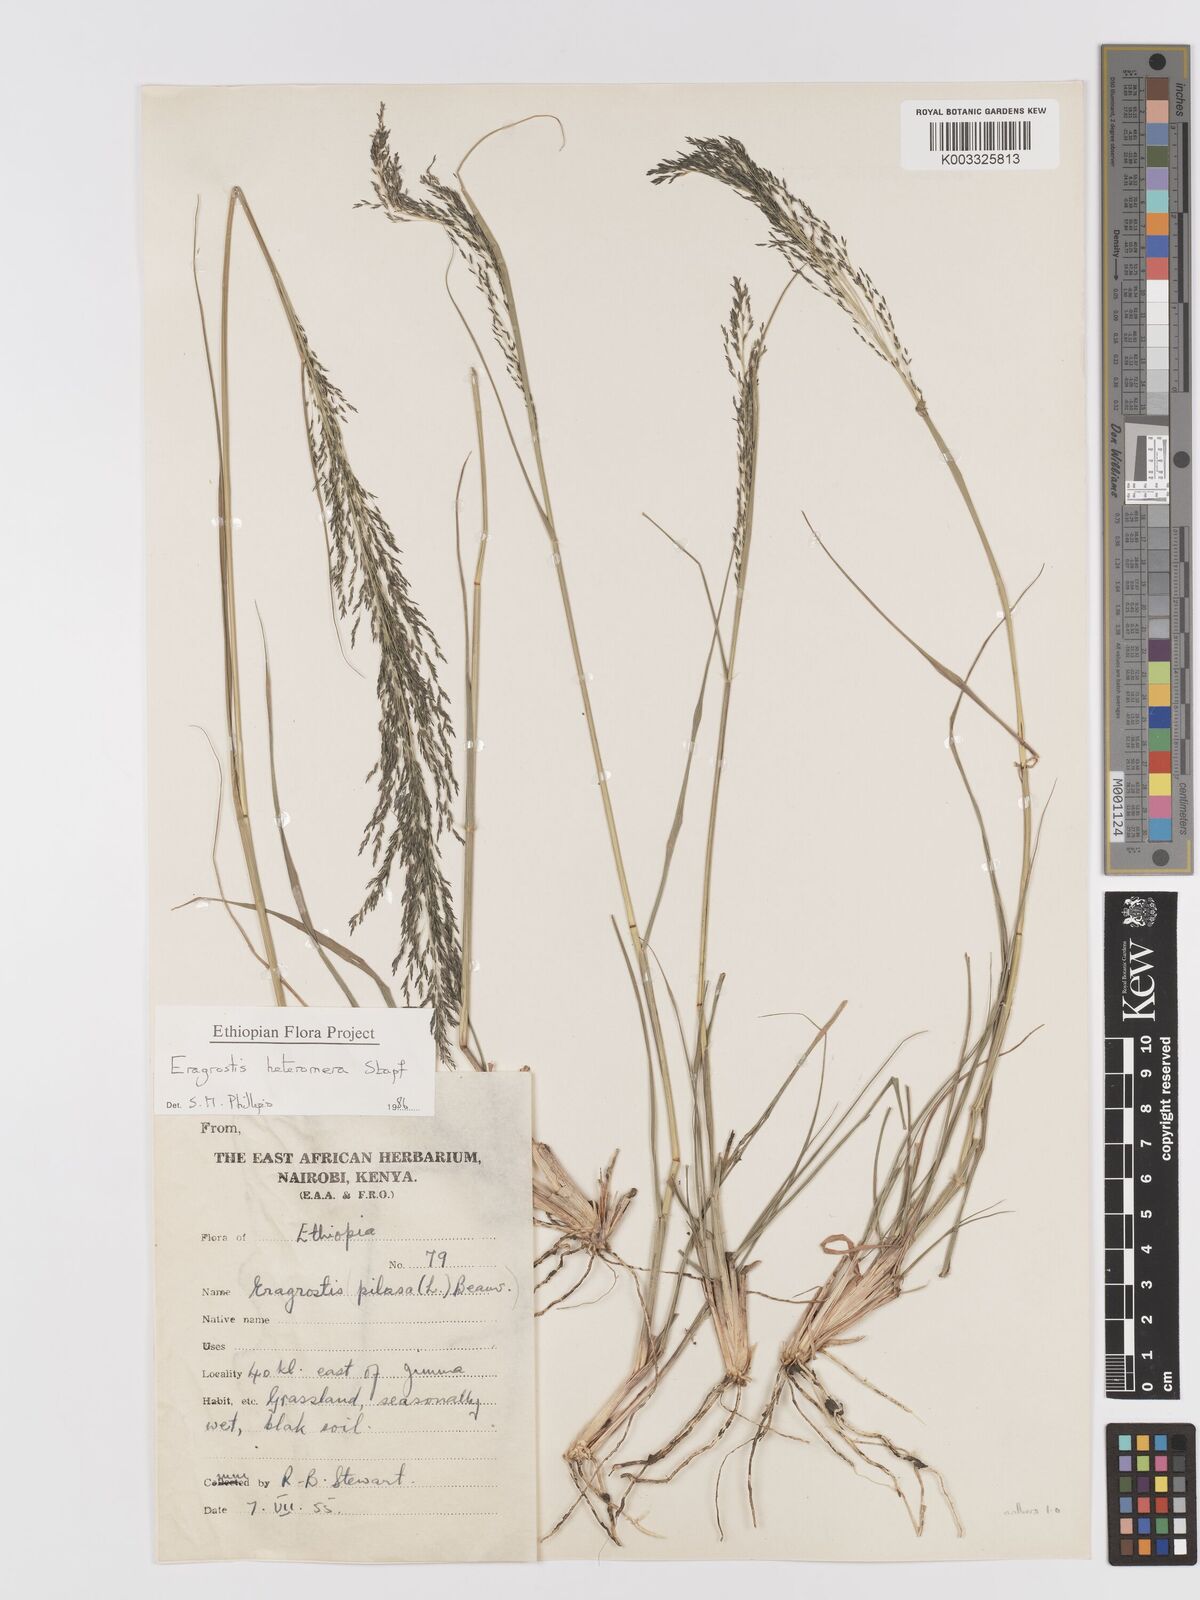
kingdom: Plantae
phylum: Tracheophyta
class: Liliopsida
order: Poales
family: Poaceae
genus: Eragrostis
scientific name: Eragrostis heteromera
